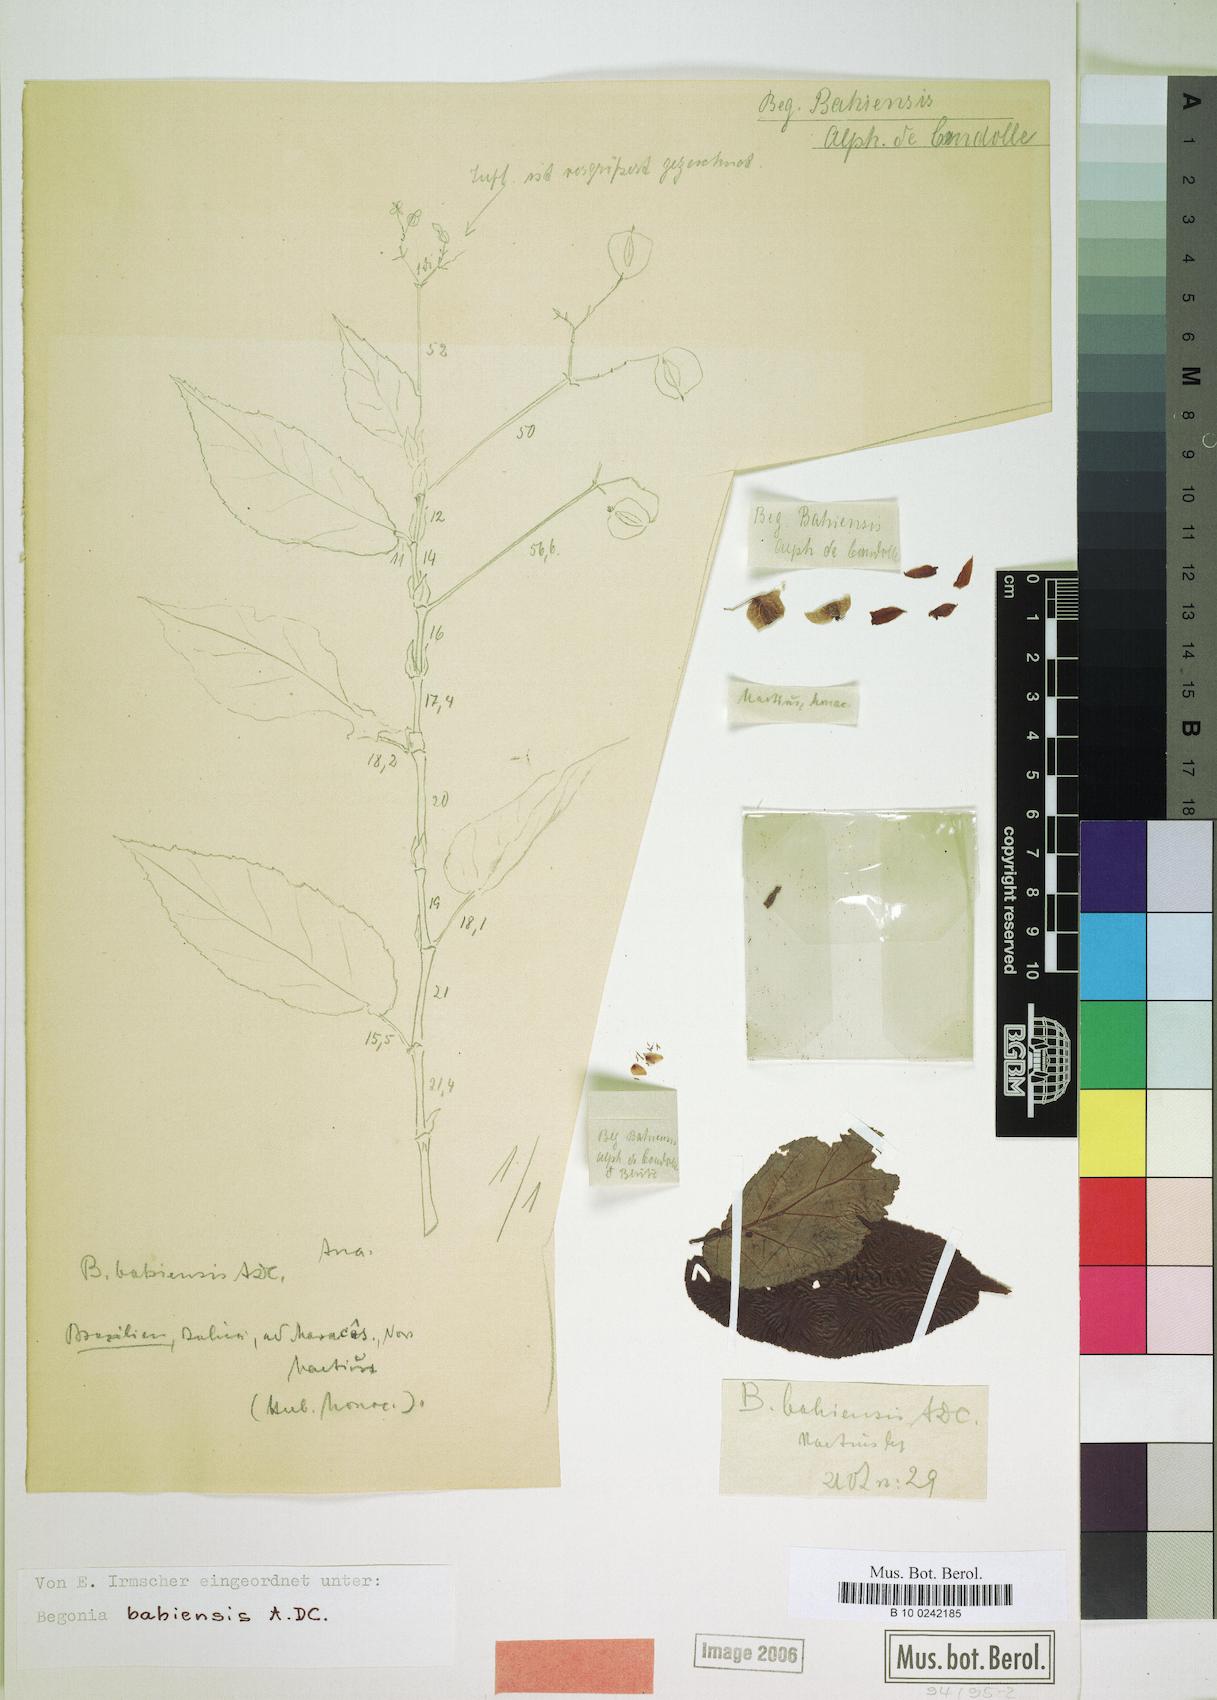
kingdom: Plantae
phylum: Tracheophyta
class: Magnoliopsida
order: Cucurbitales
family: Begoniaceae
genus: Begonia
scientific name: Begonia bahiensis
